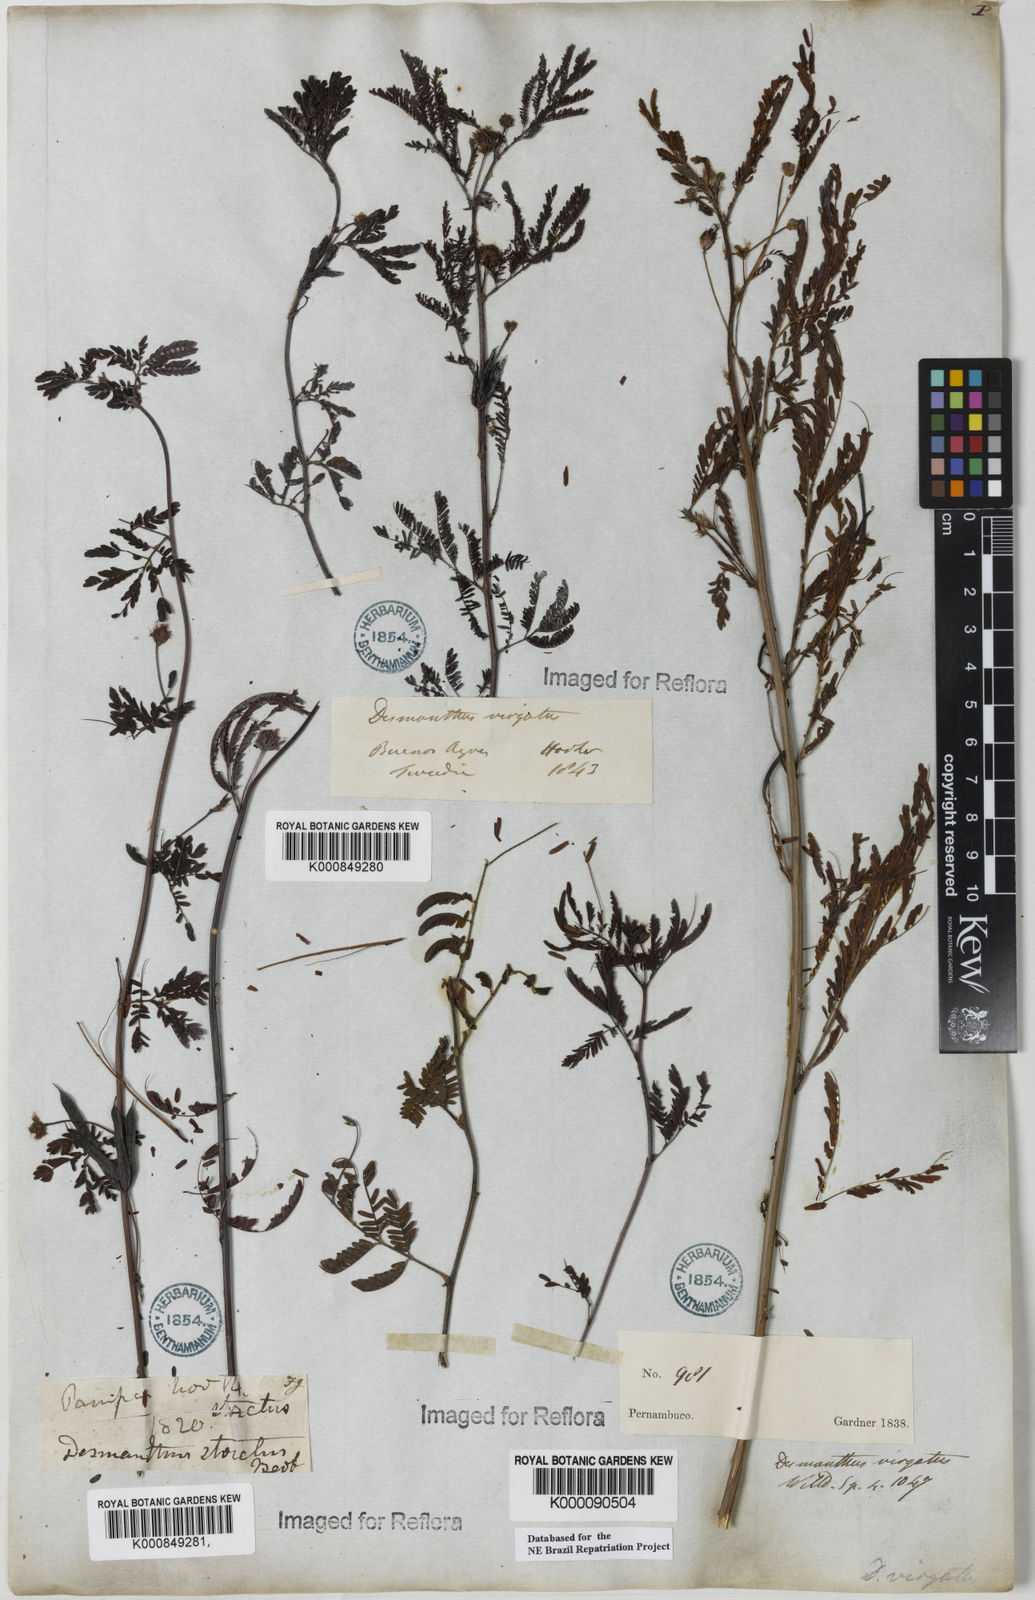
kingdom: Plantae
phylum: Tracheophyta
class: Magnoliopsida
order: Fabales
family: Fabaceae
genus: Desmanthus
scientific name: Desmanthus
